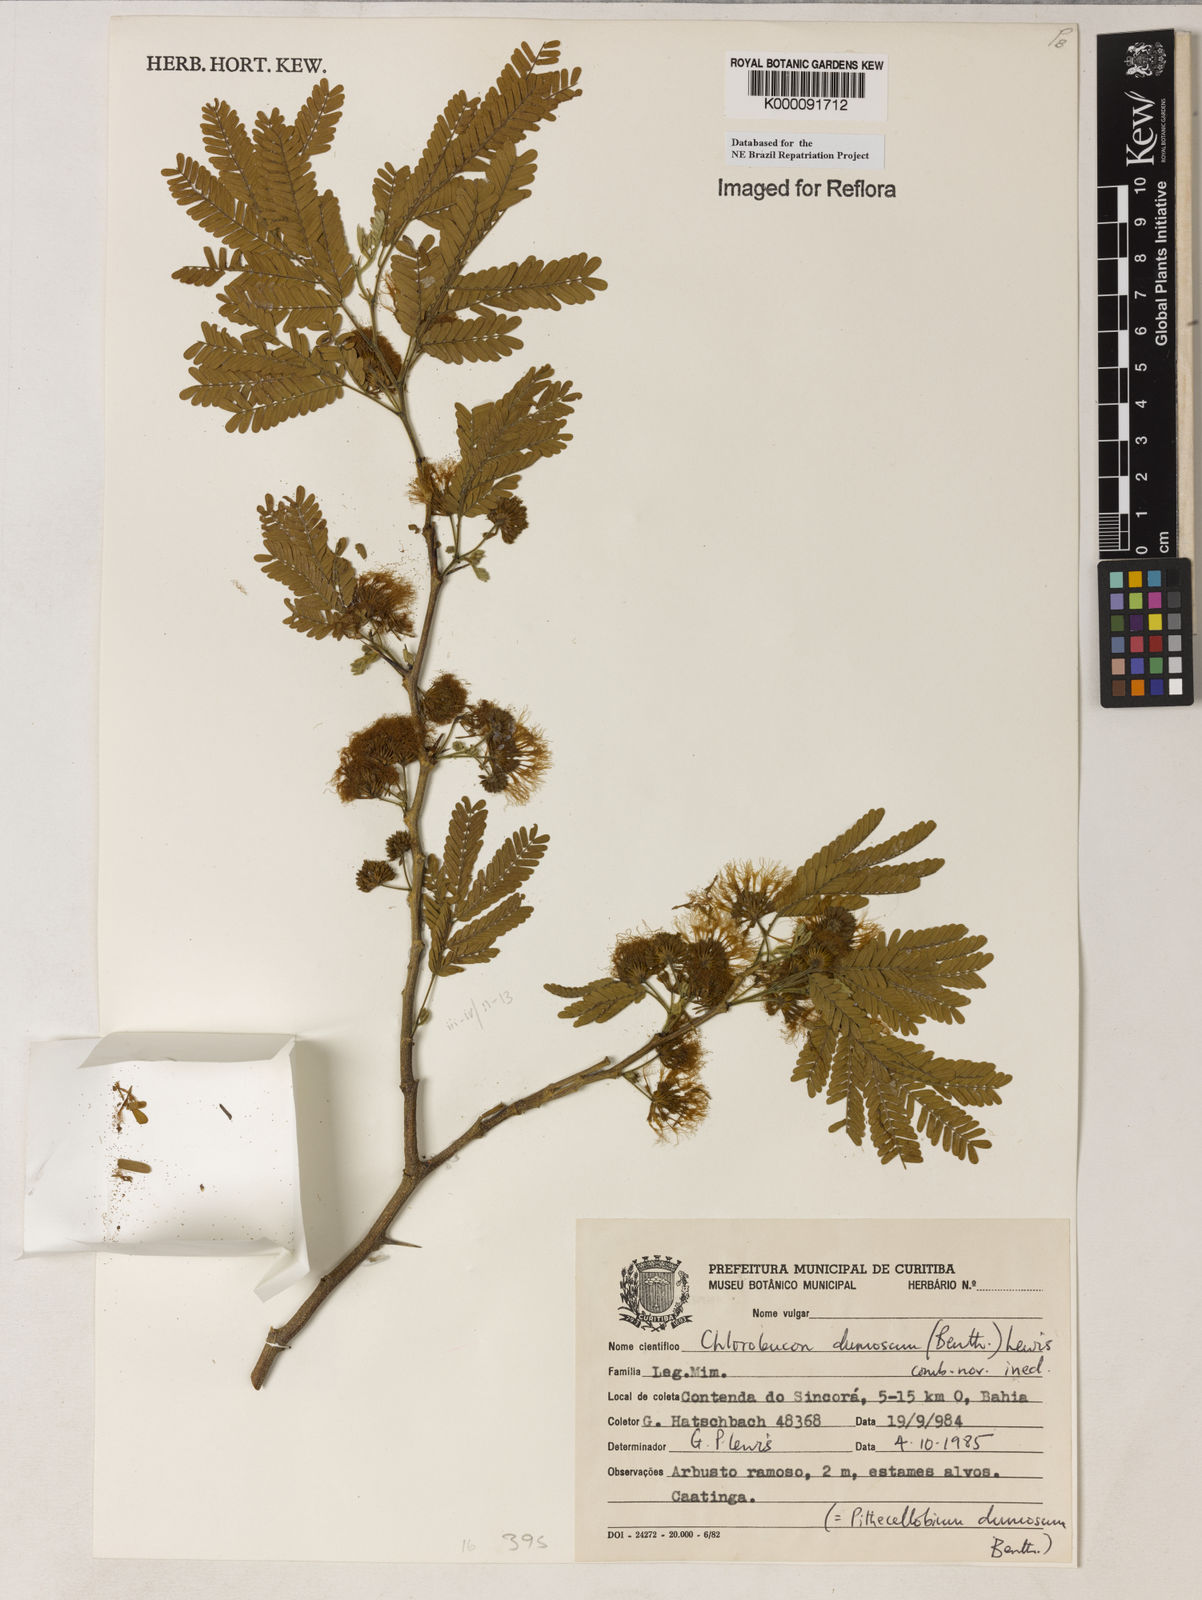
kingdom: Plantae
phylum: Tracheophyta
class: Magnoliopsida
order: Fabales
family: Fabaceae
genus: Chloroleucon
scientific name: Chloroleucon dumosum
